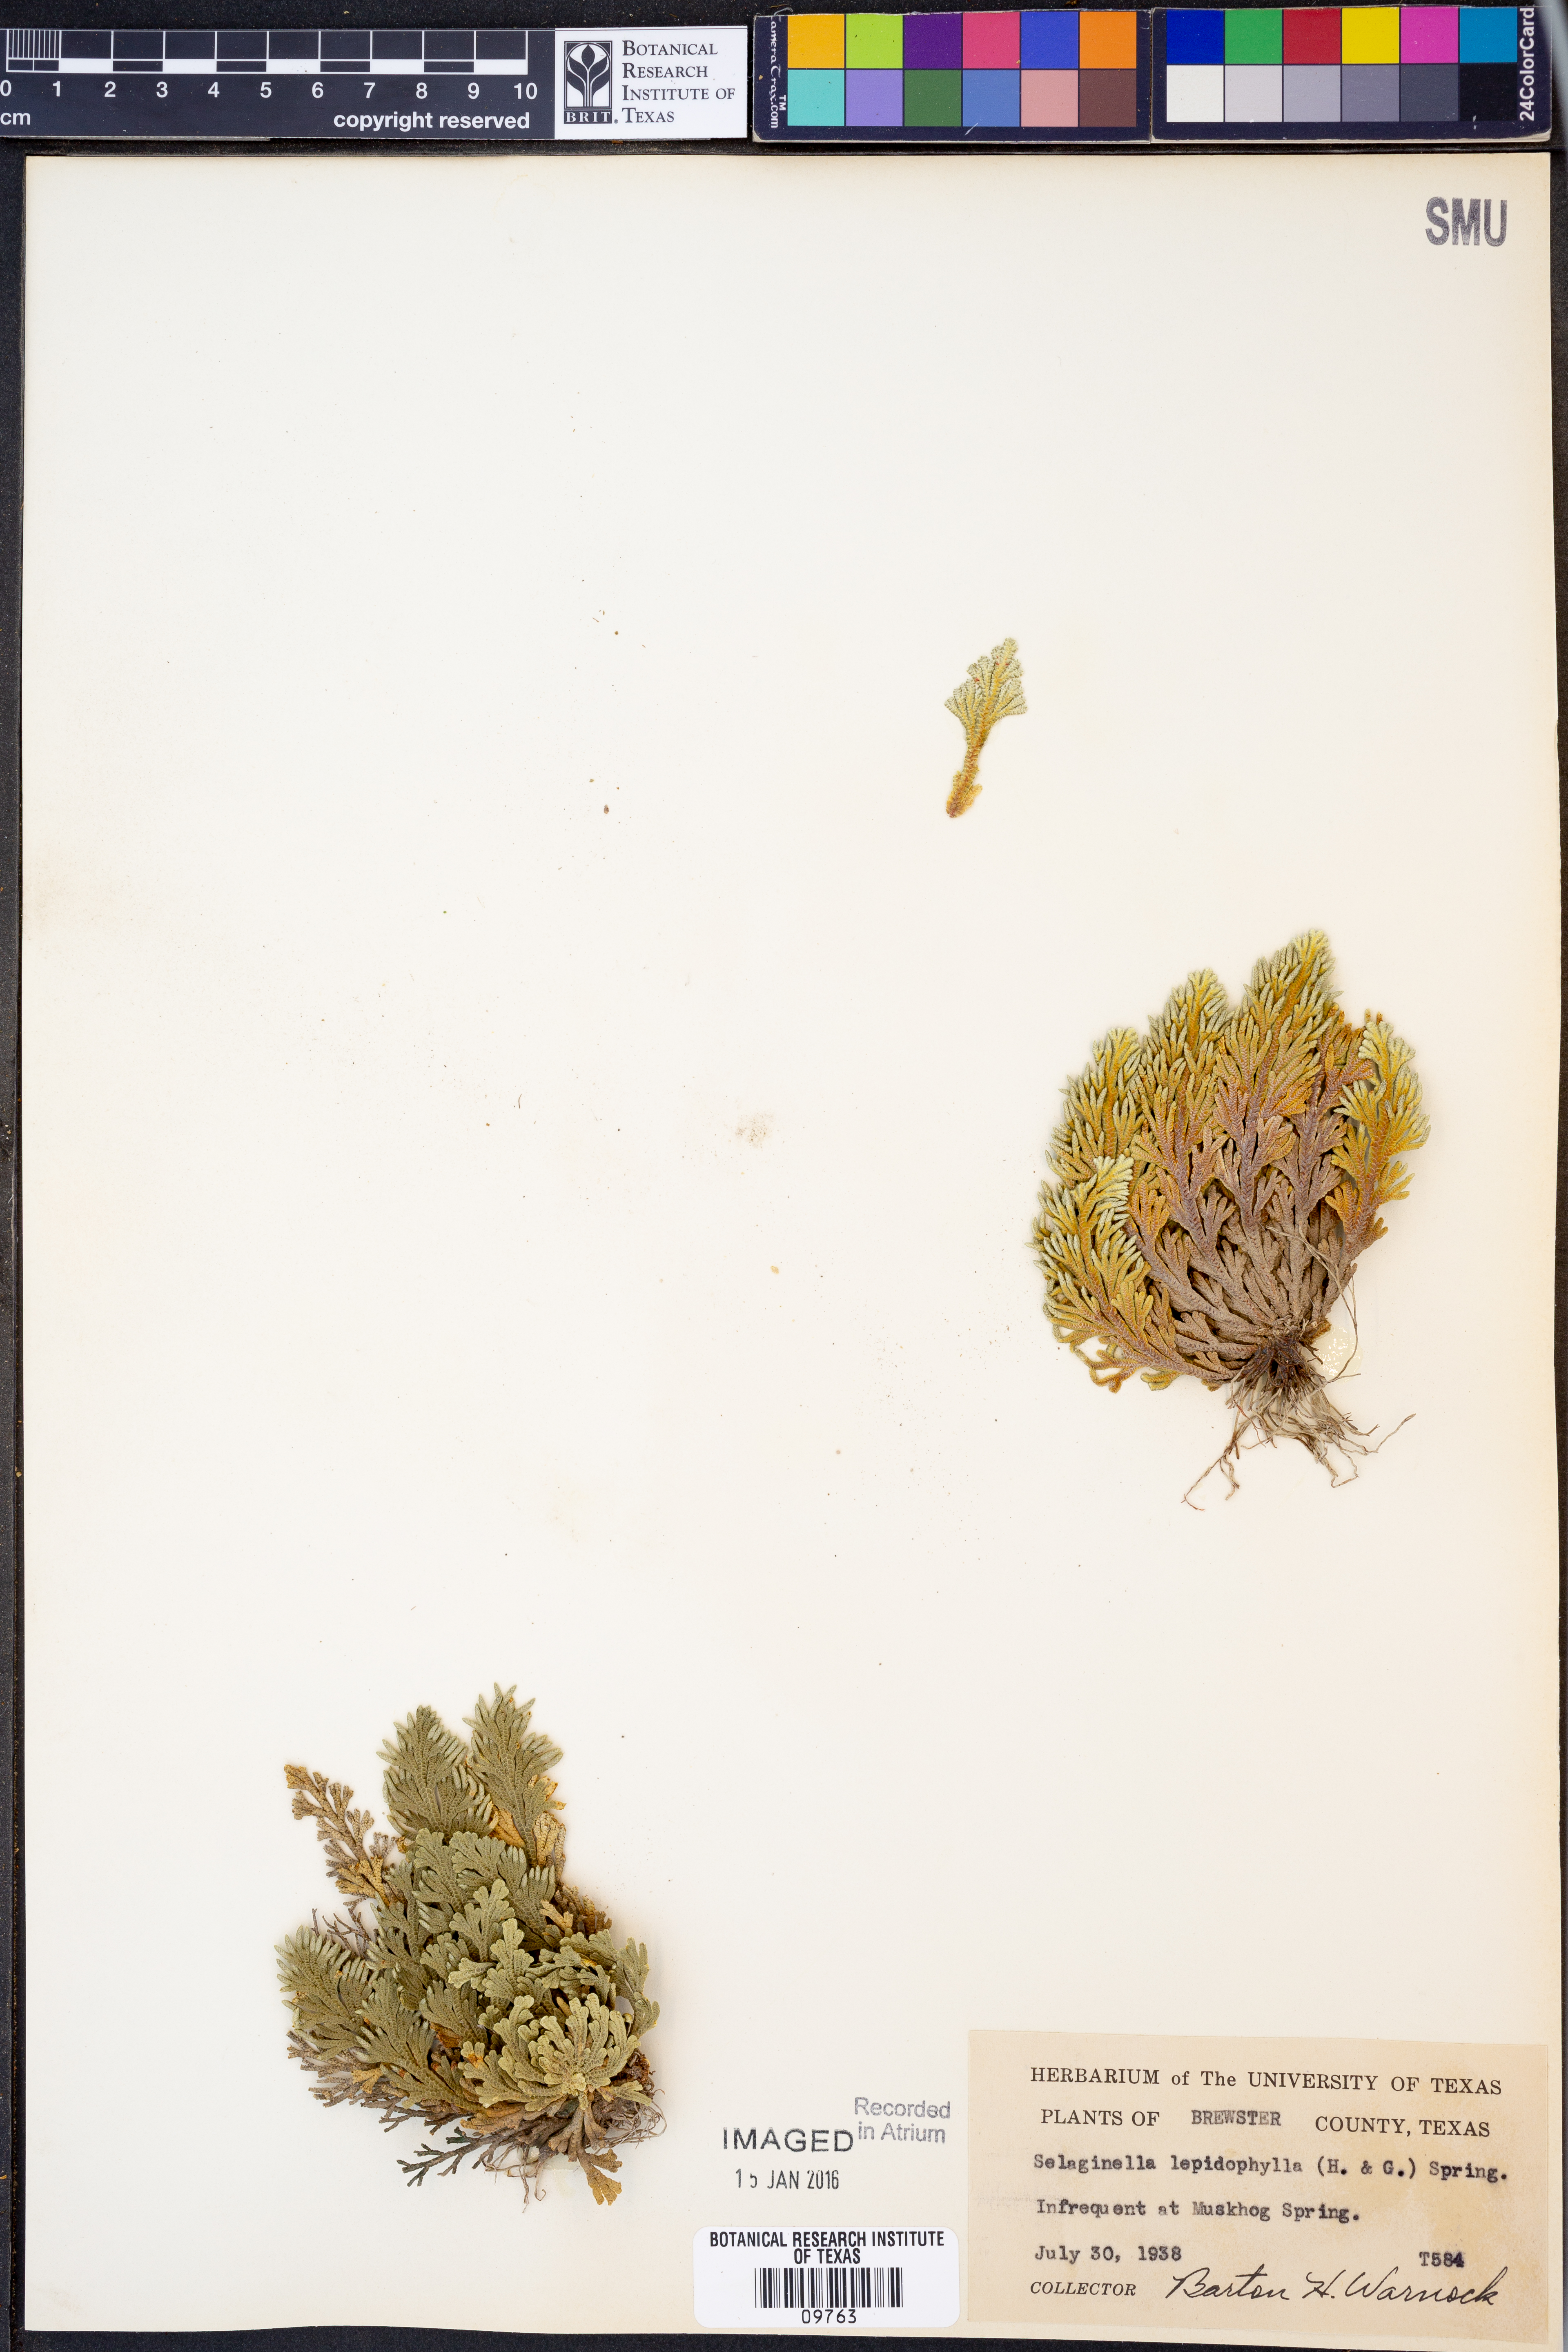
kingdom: Plantae
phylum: Tracheophyta
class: Lycopodiopsida
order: Selaginellales
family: Selaginellaceae
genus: Selaginella
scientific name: Selaginella lepidophylla
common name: Rose-of-jericho
